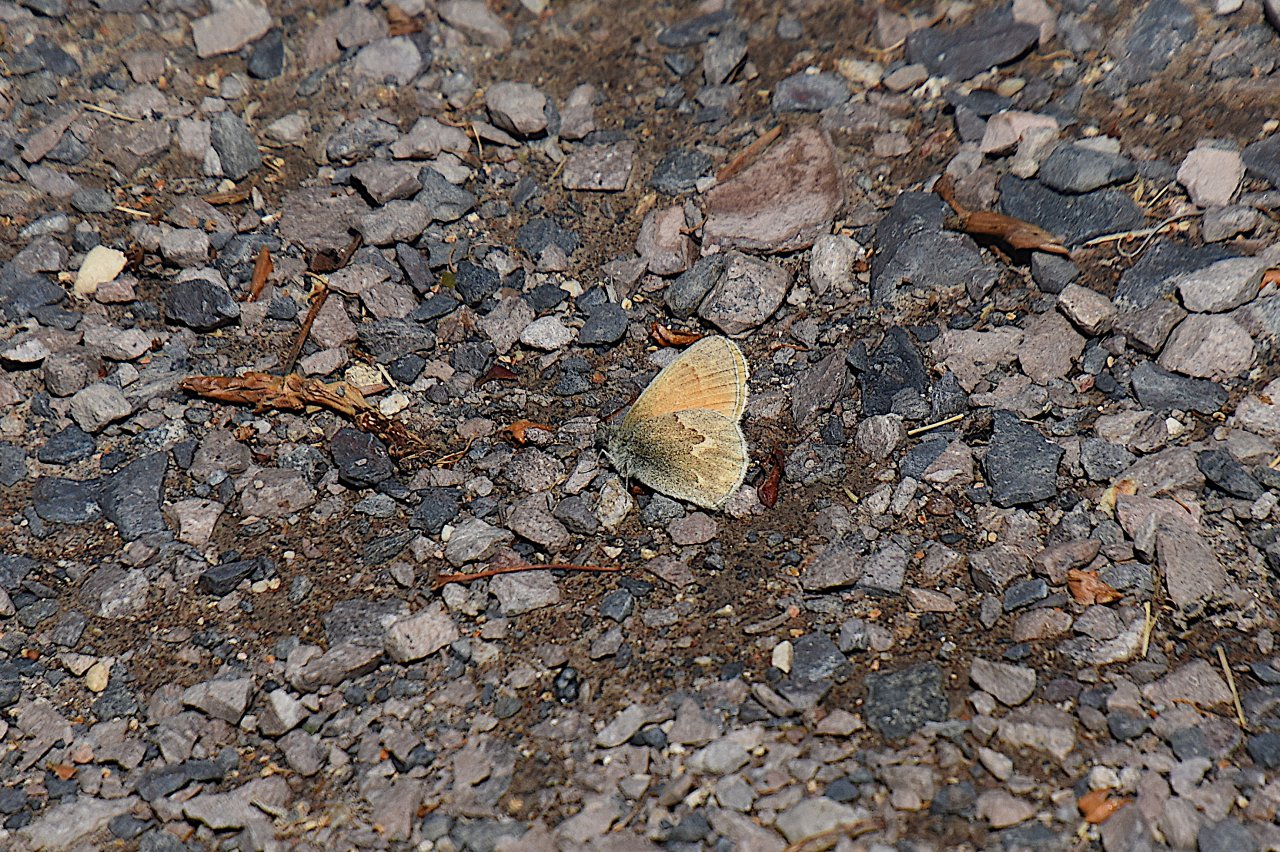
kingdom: Animalia
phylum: Arthropoda
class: Insecta
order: Lepidoptera
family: Nymphalidae
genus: Coenonympha
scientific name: Coenonympha tullia
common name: Large Heath
